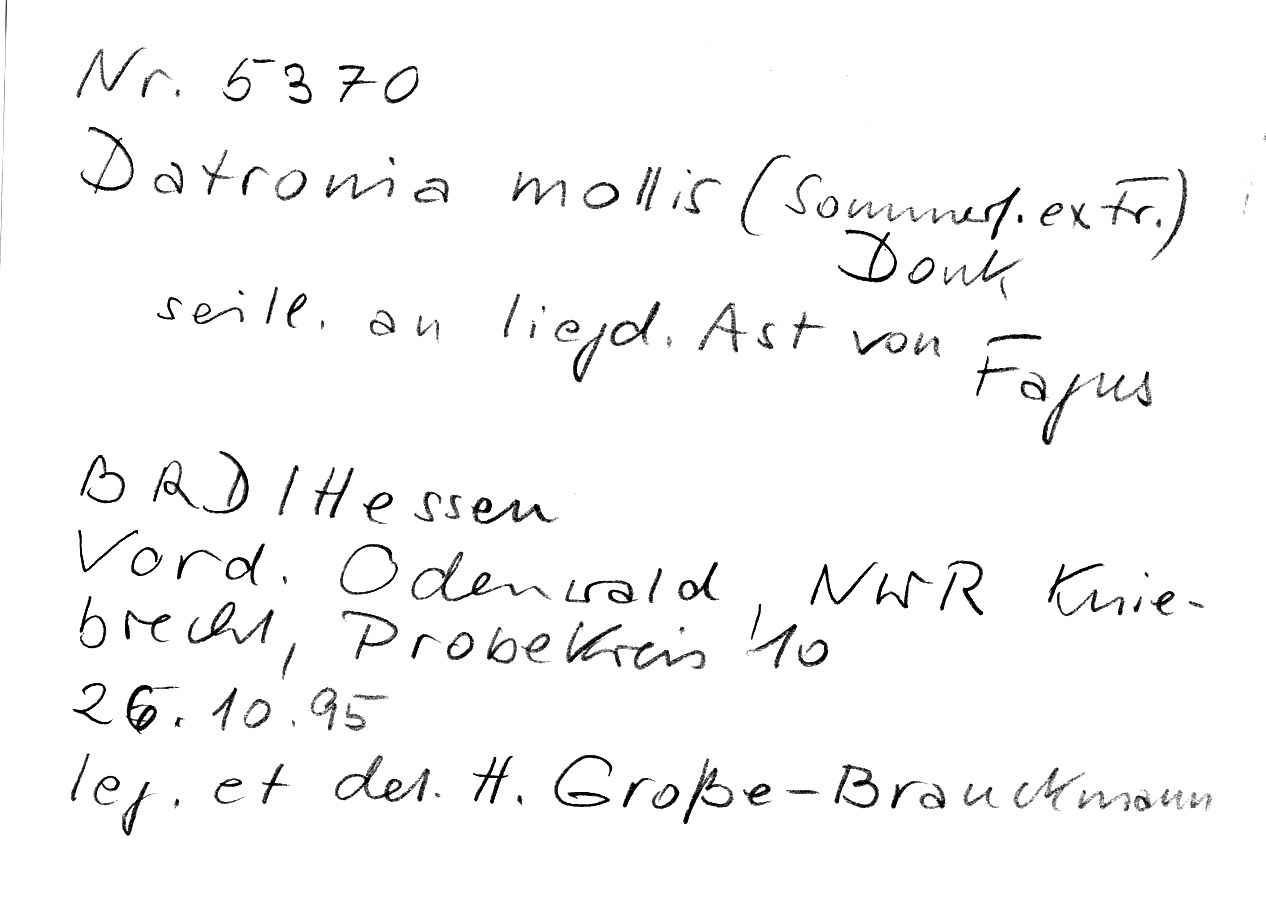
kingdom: Fungi
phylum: Basidiomycota
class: Agaricomycetes
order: Polyporales
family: Polyporaceae
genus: Podofomes
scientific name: Podofomes mollis
